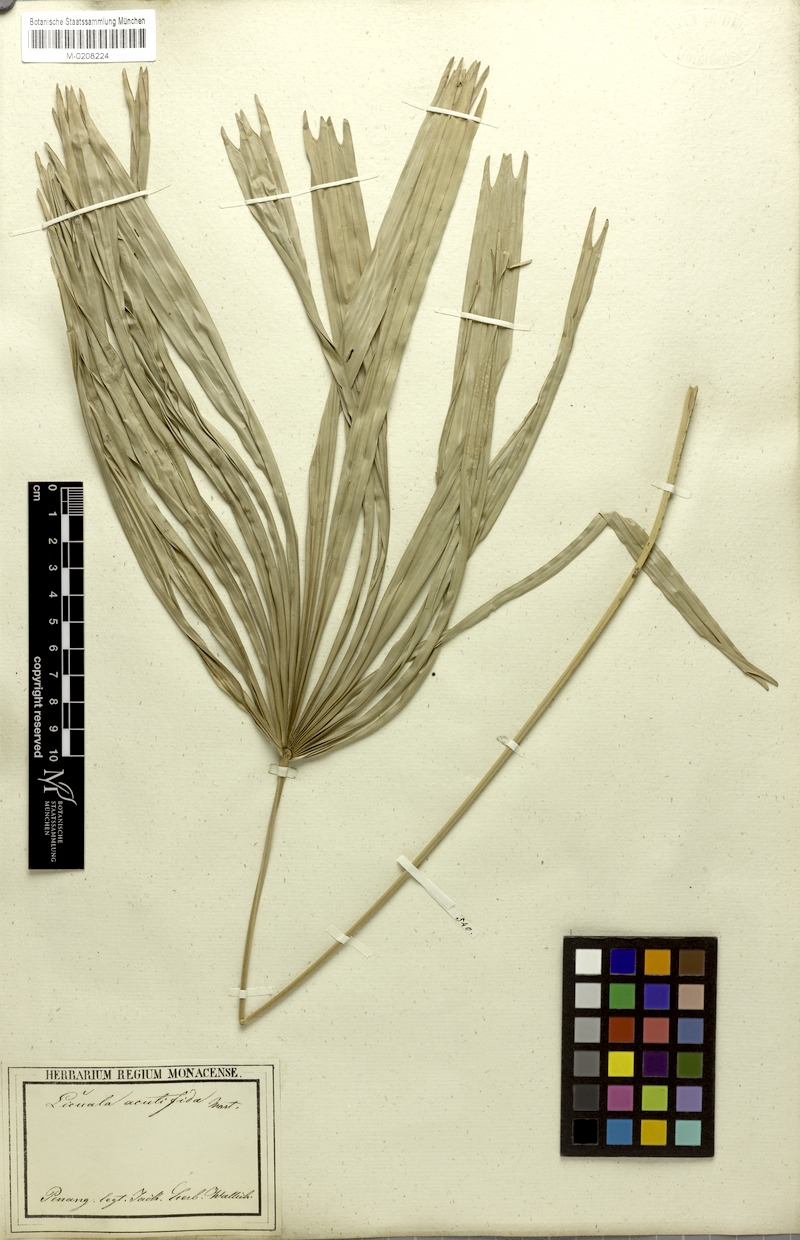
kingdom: Plantae
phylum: Tracheophyta
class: Liliopsida
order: Arecales
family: Arecaceae
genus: Licuala
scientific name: Licuala acutifida
